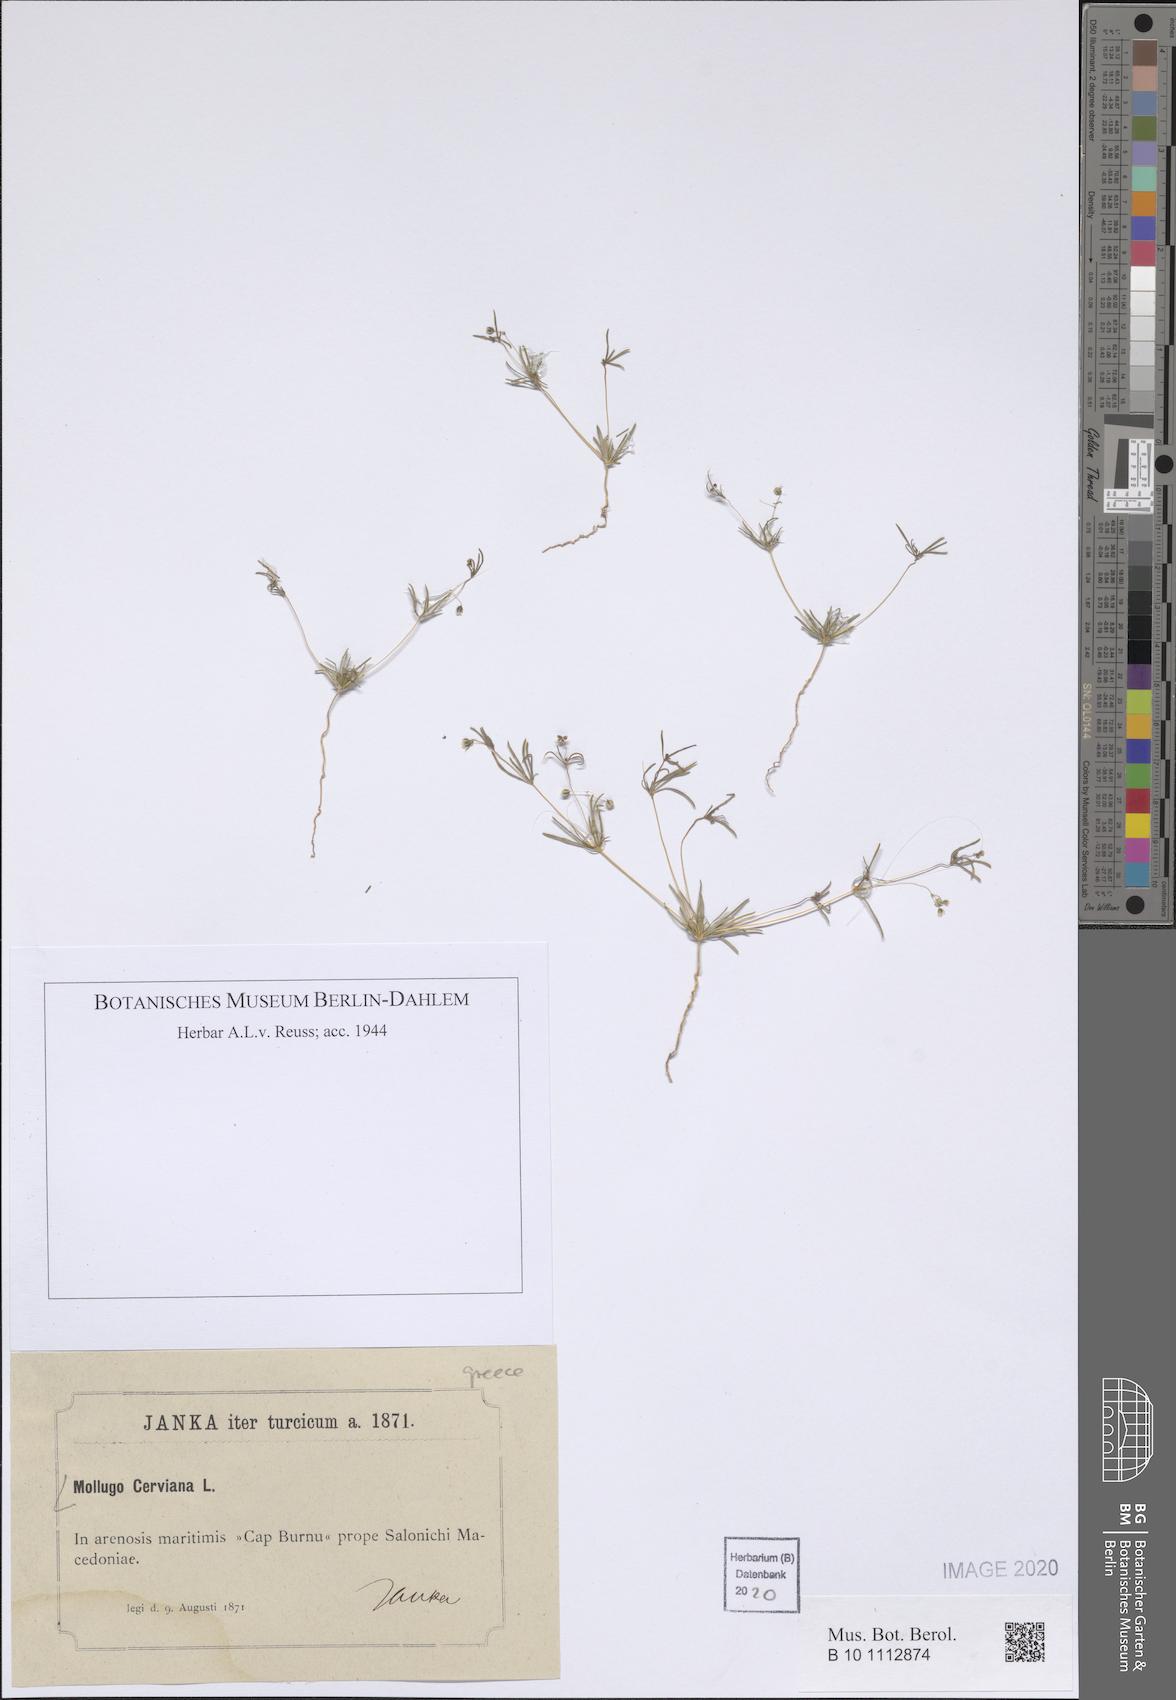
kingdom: Plantae
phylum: Tracheophyta
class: Magnoliopsida
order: Caryophyllales
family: Molluginaceae
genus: Hypertelis
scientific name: Hypertelis cerviana
